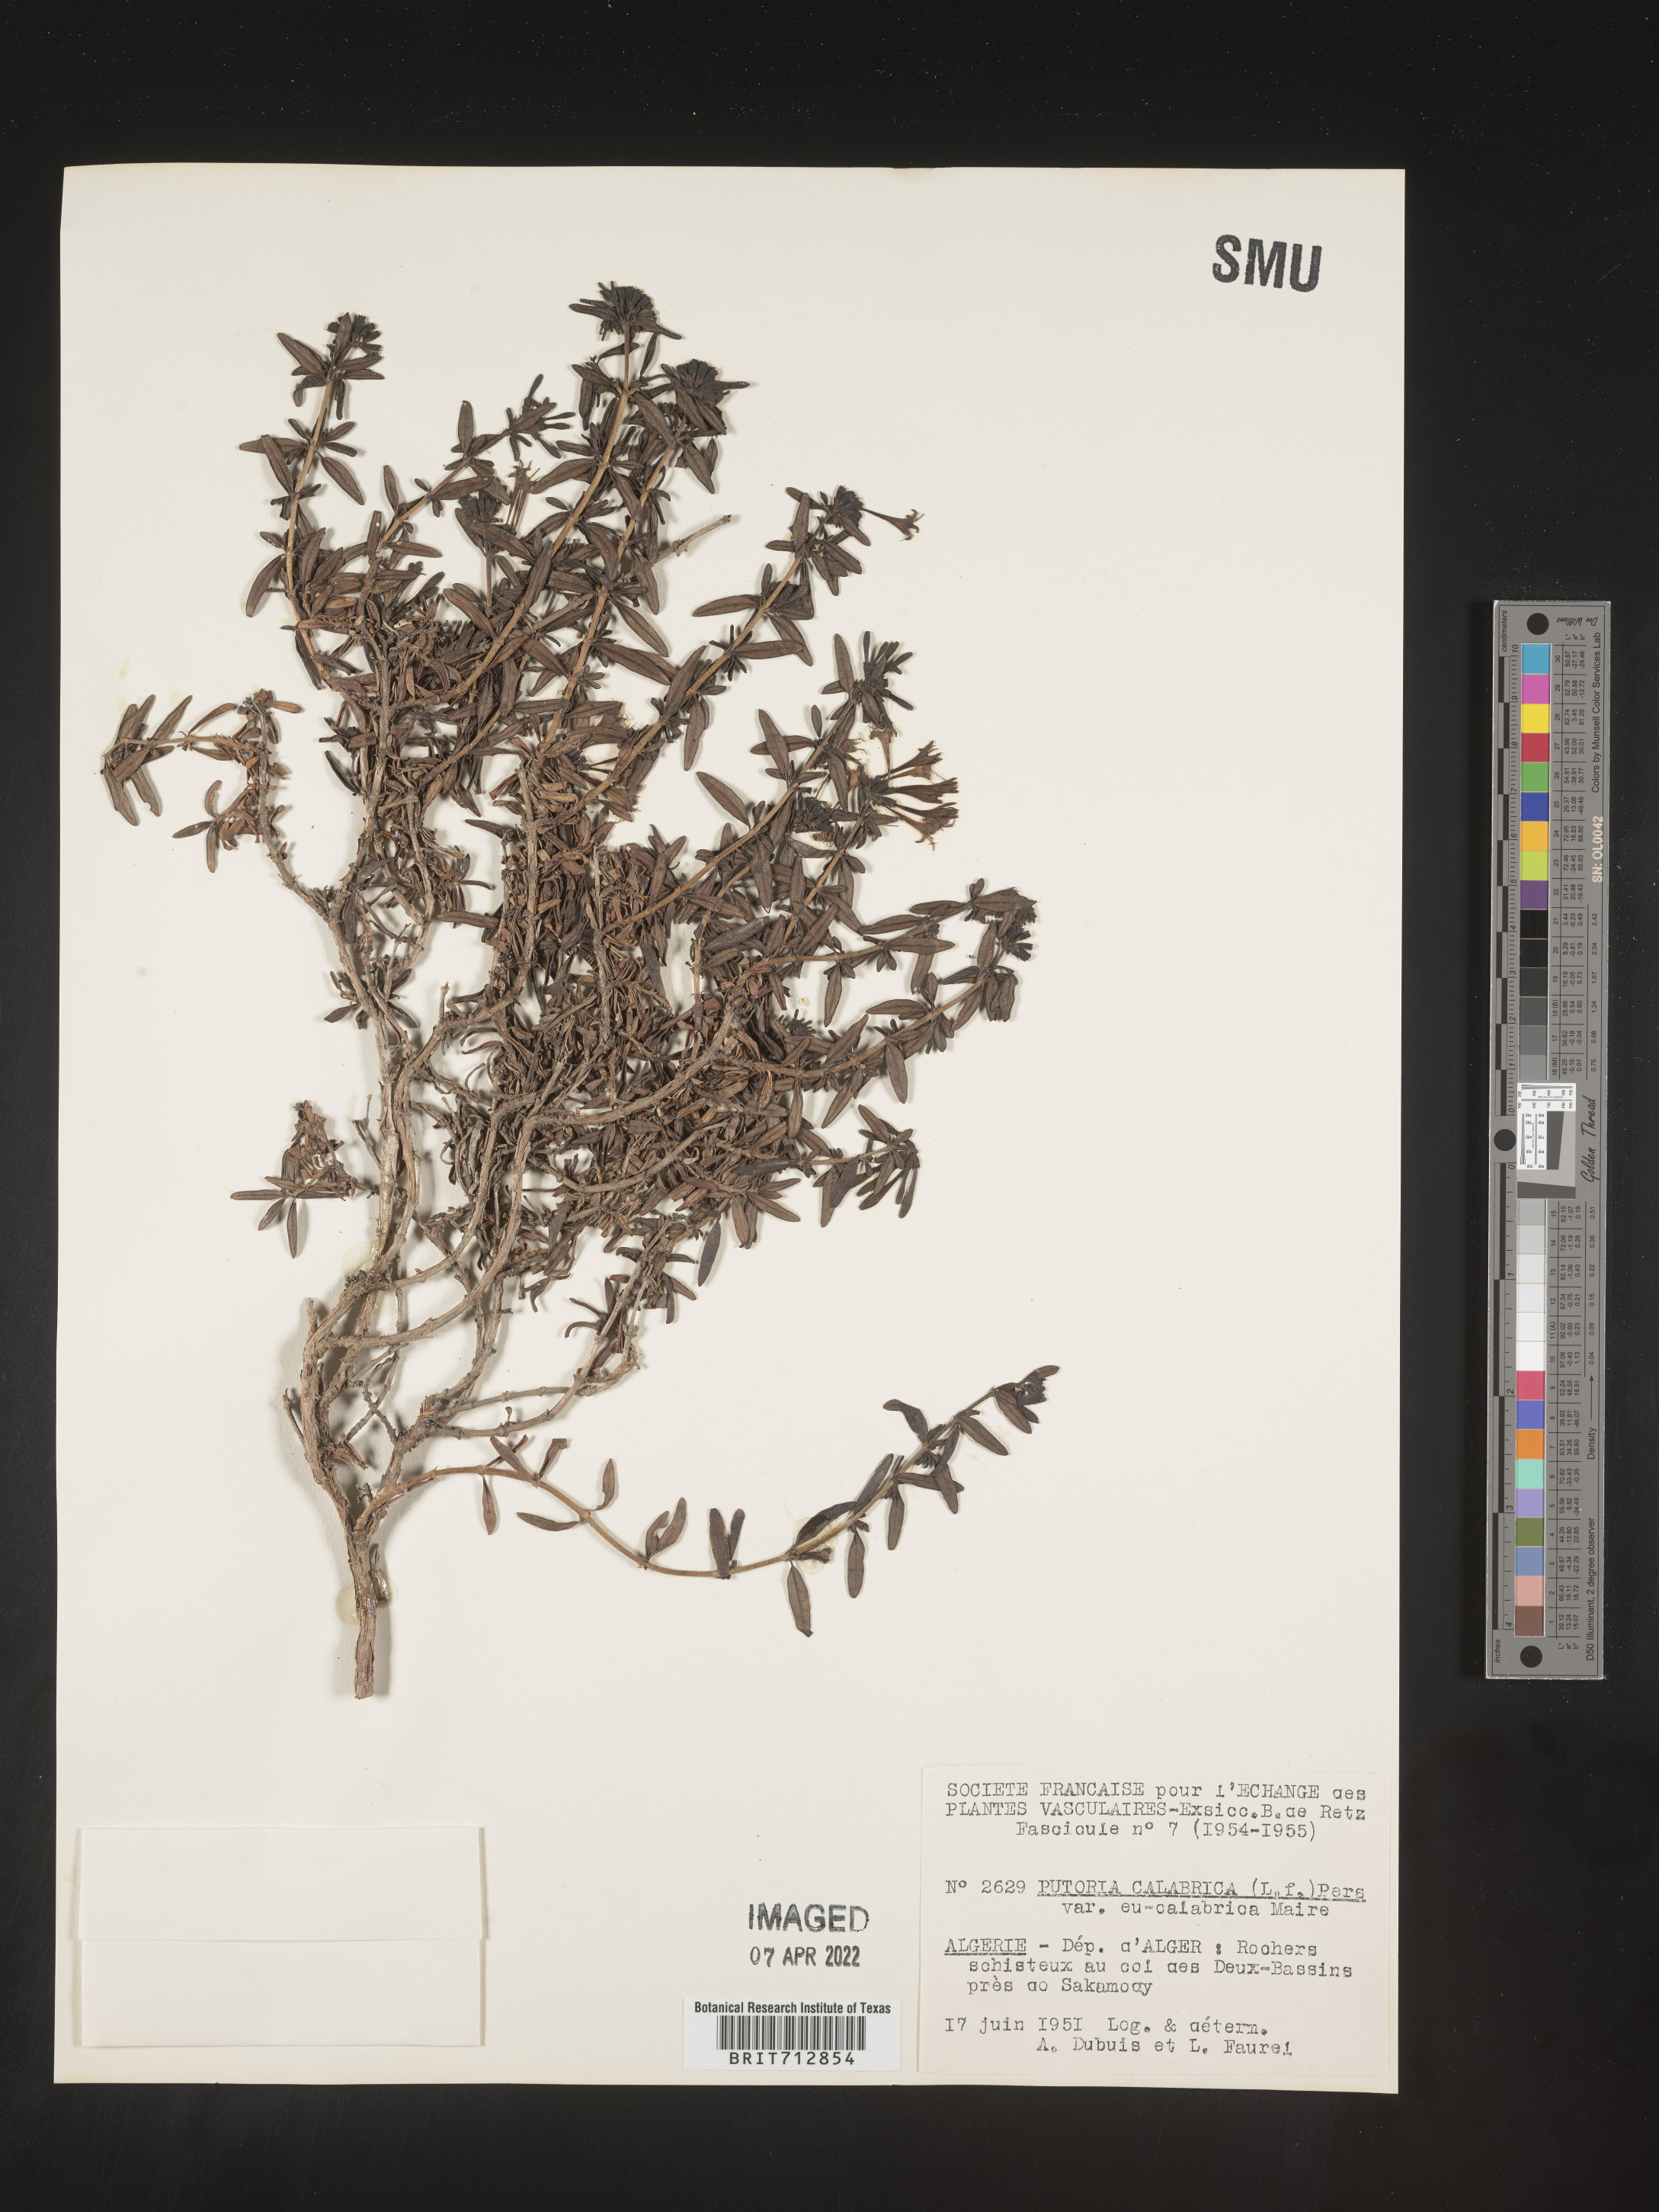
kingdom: Plantae
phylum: Tracheophyta
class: Magnoliopsida
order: Gentianales
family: Rubiaceae
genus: Plocama
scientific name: Plocama
